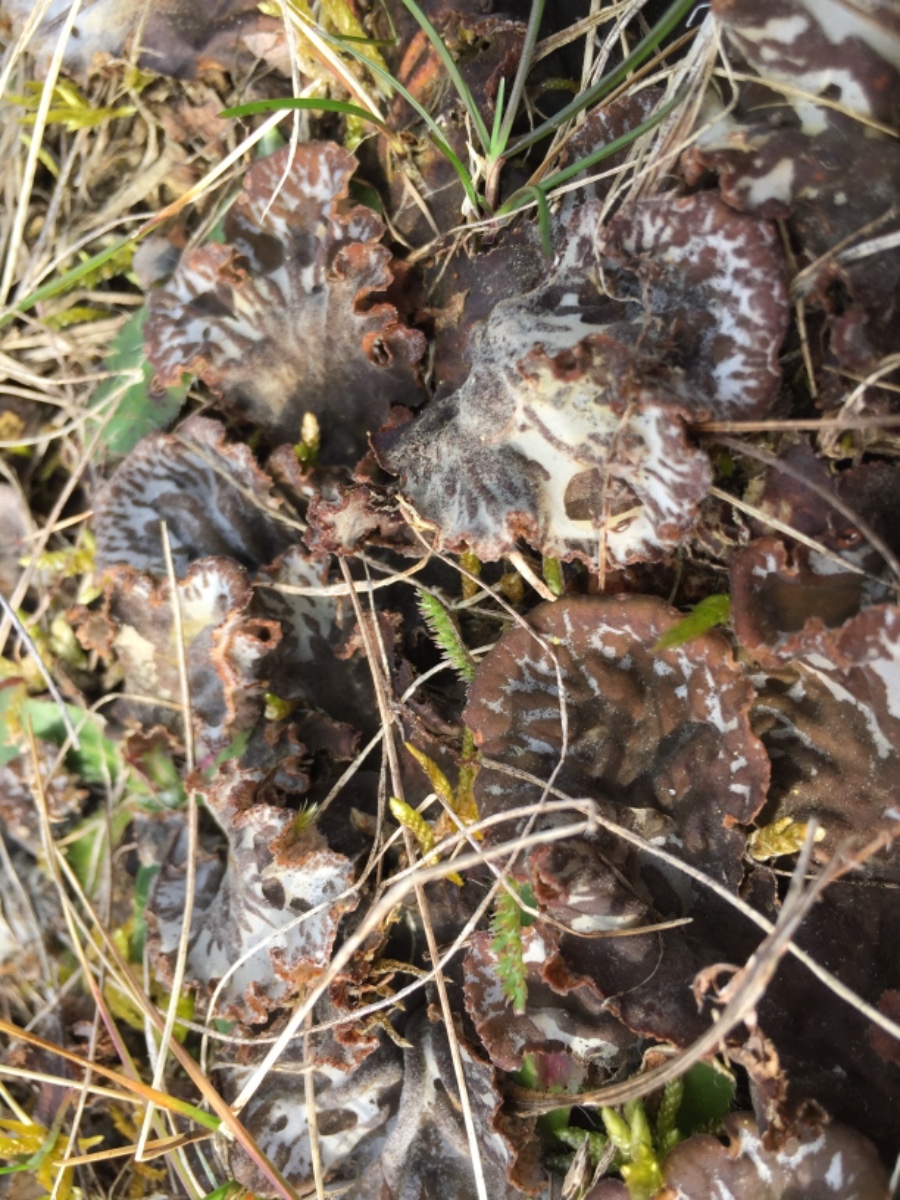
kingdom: Fungi
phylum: Ascomycota
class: Lecanoromycetes
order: Peltigerales
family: Peltigeraceae
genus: Peltigera
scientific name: Peltigera
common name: skjoldlav
